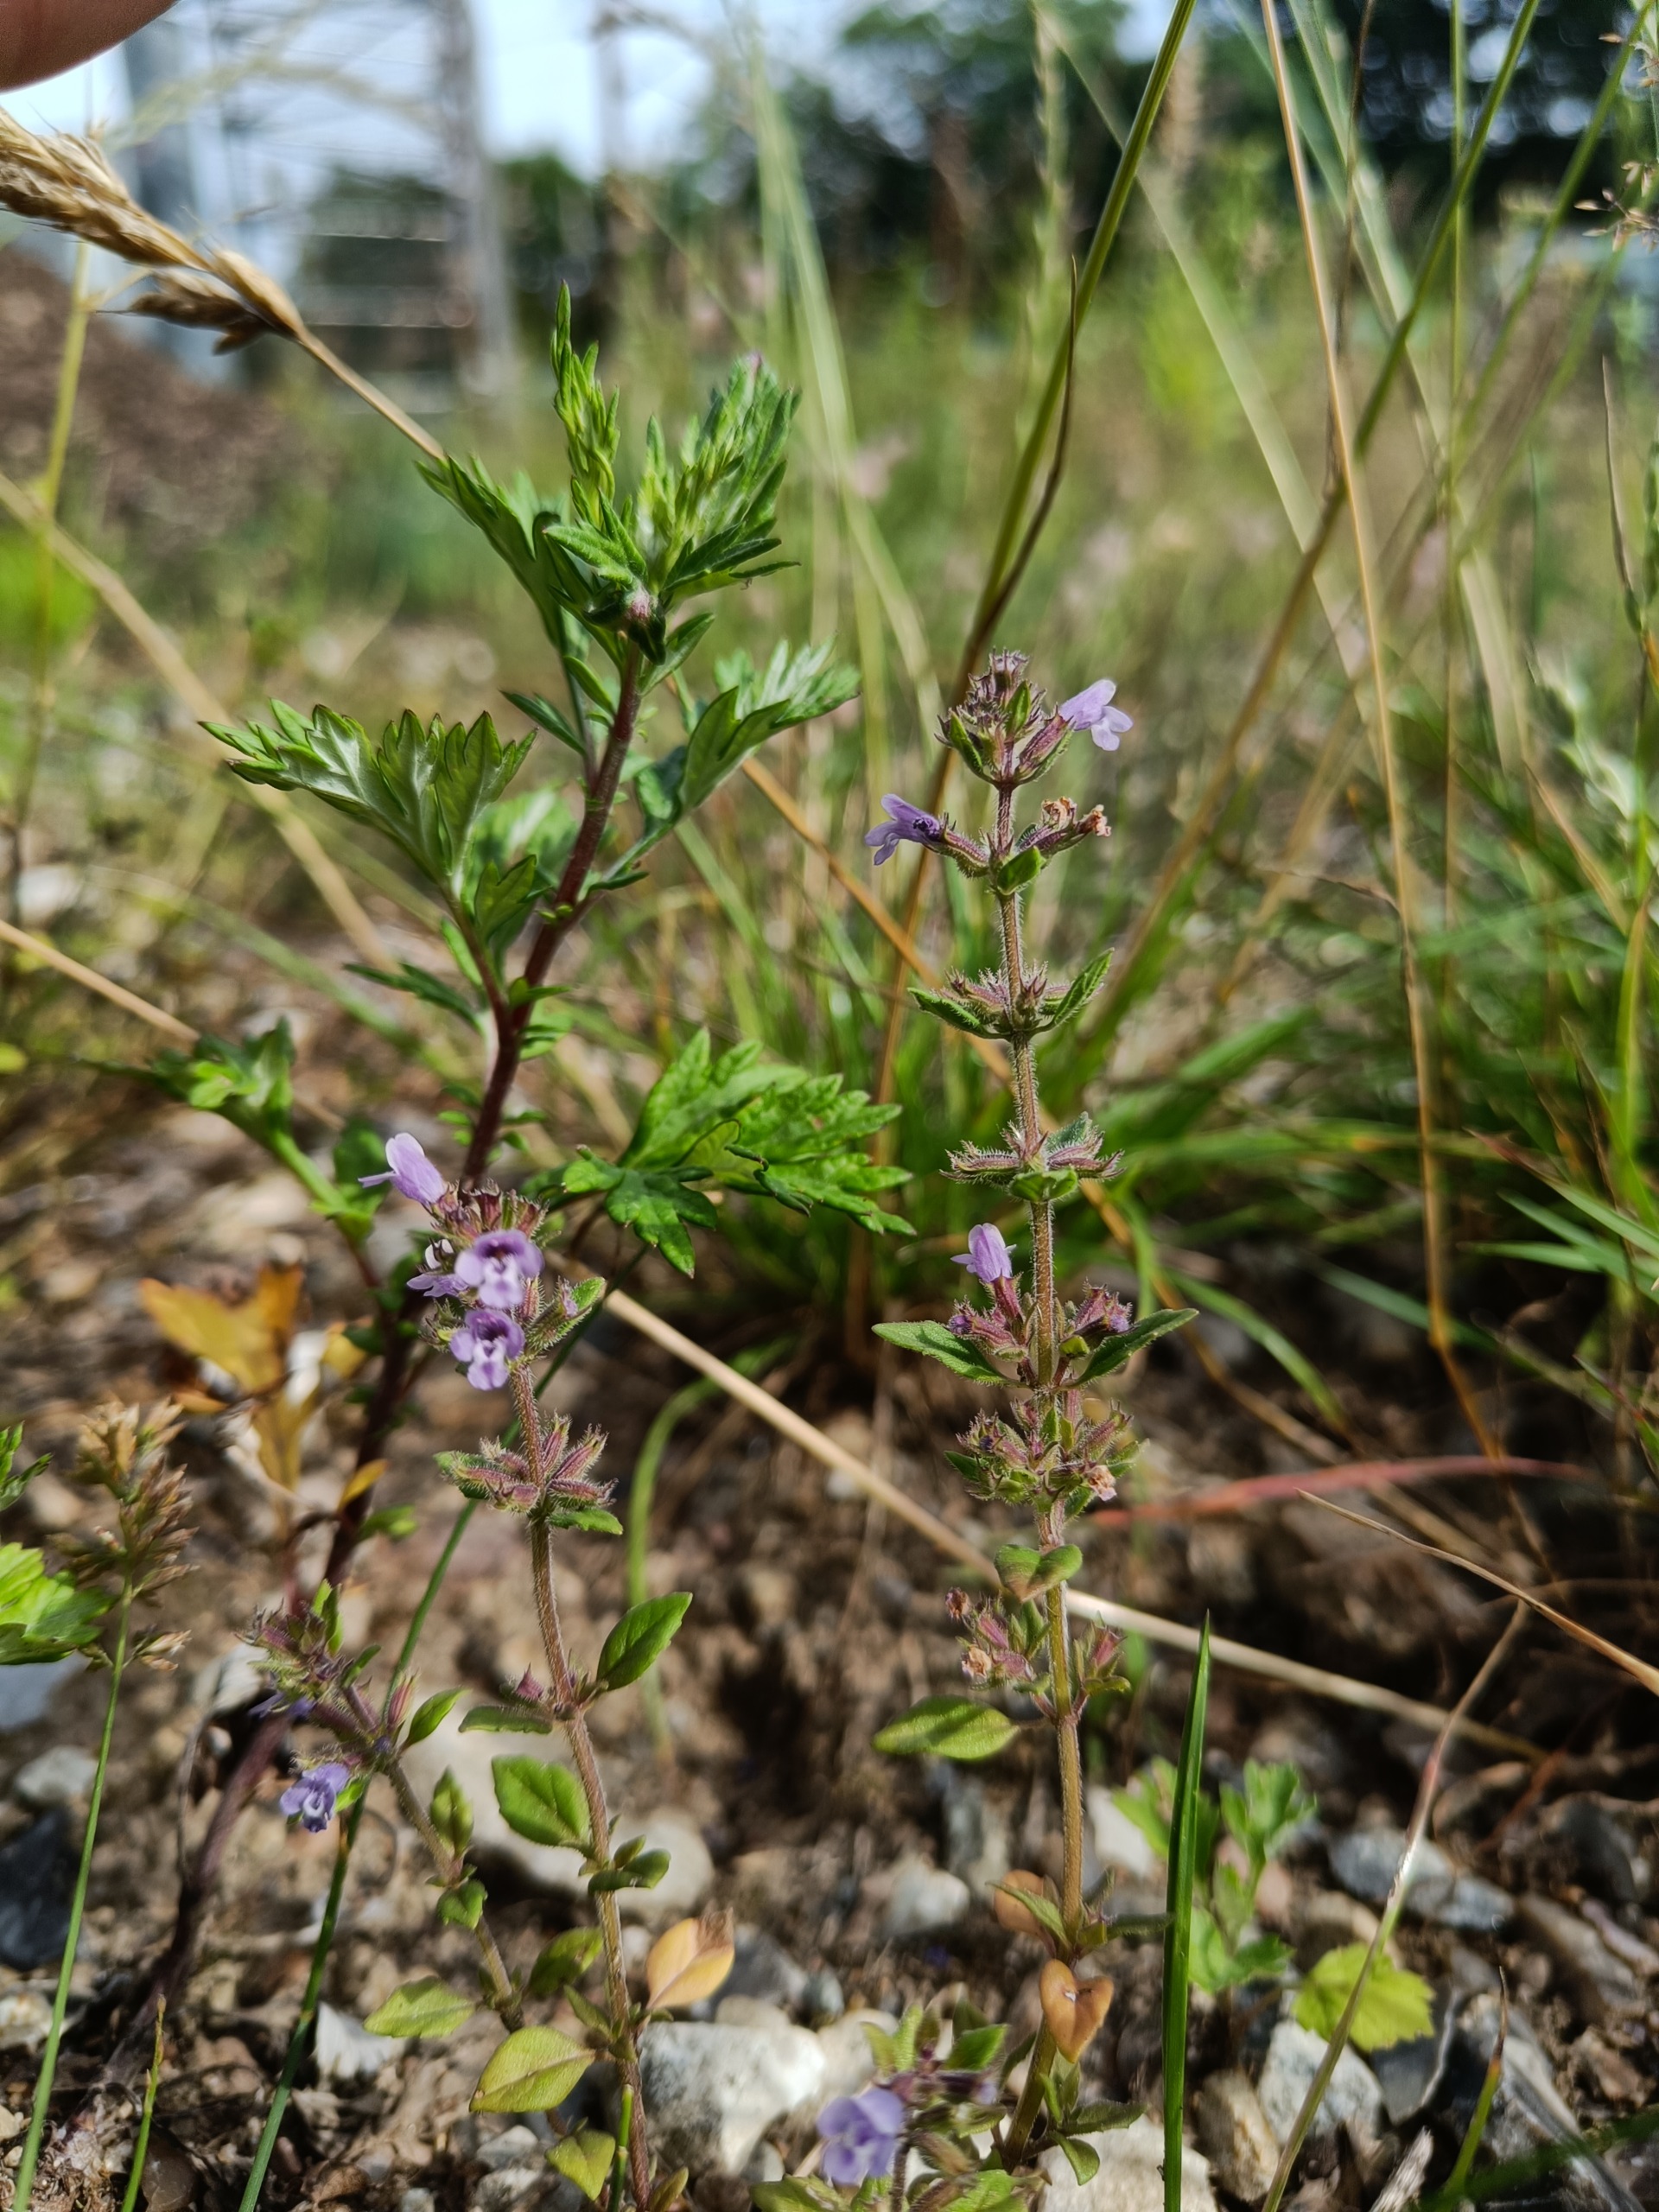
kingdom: Plantae
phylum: Tracheophyta
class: Magnoliopsida
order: Lamiales
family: Lamiaceae
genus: Clinopodium
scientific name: Clinopodium acinos
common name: Voldtimian
